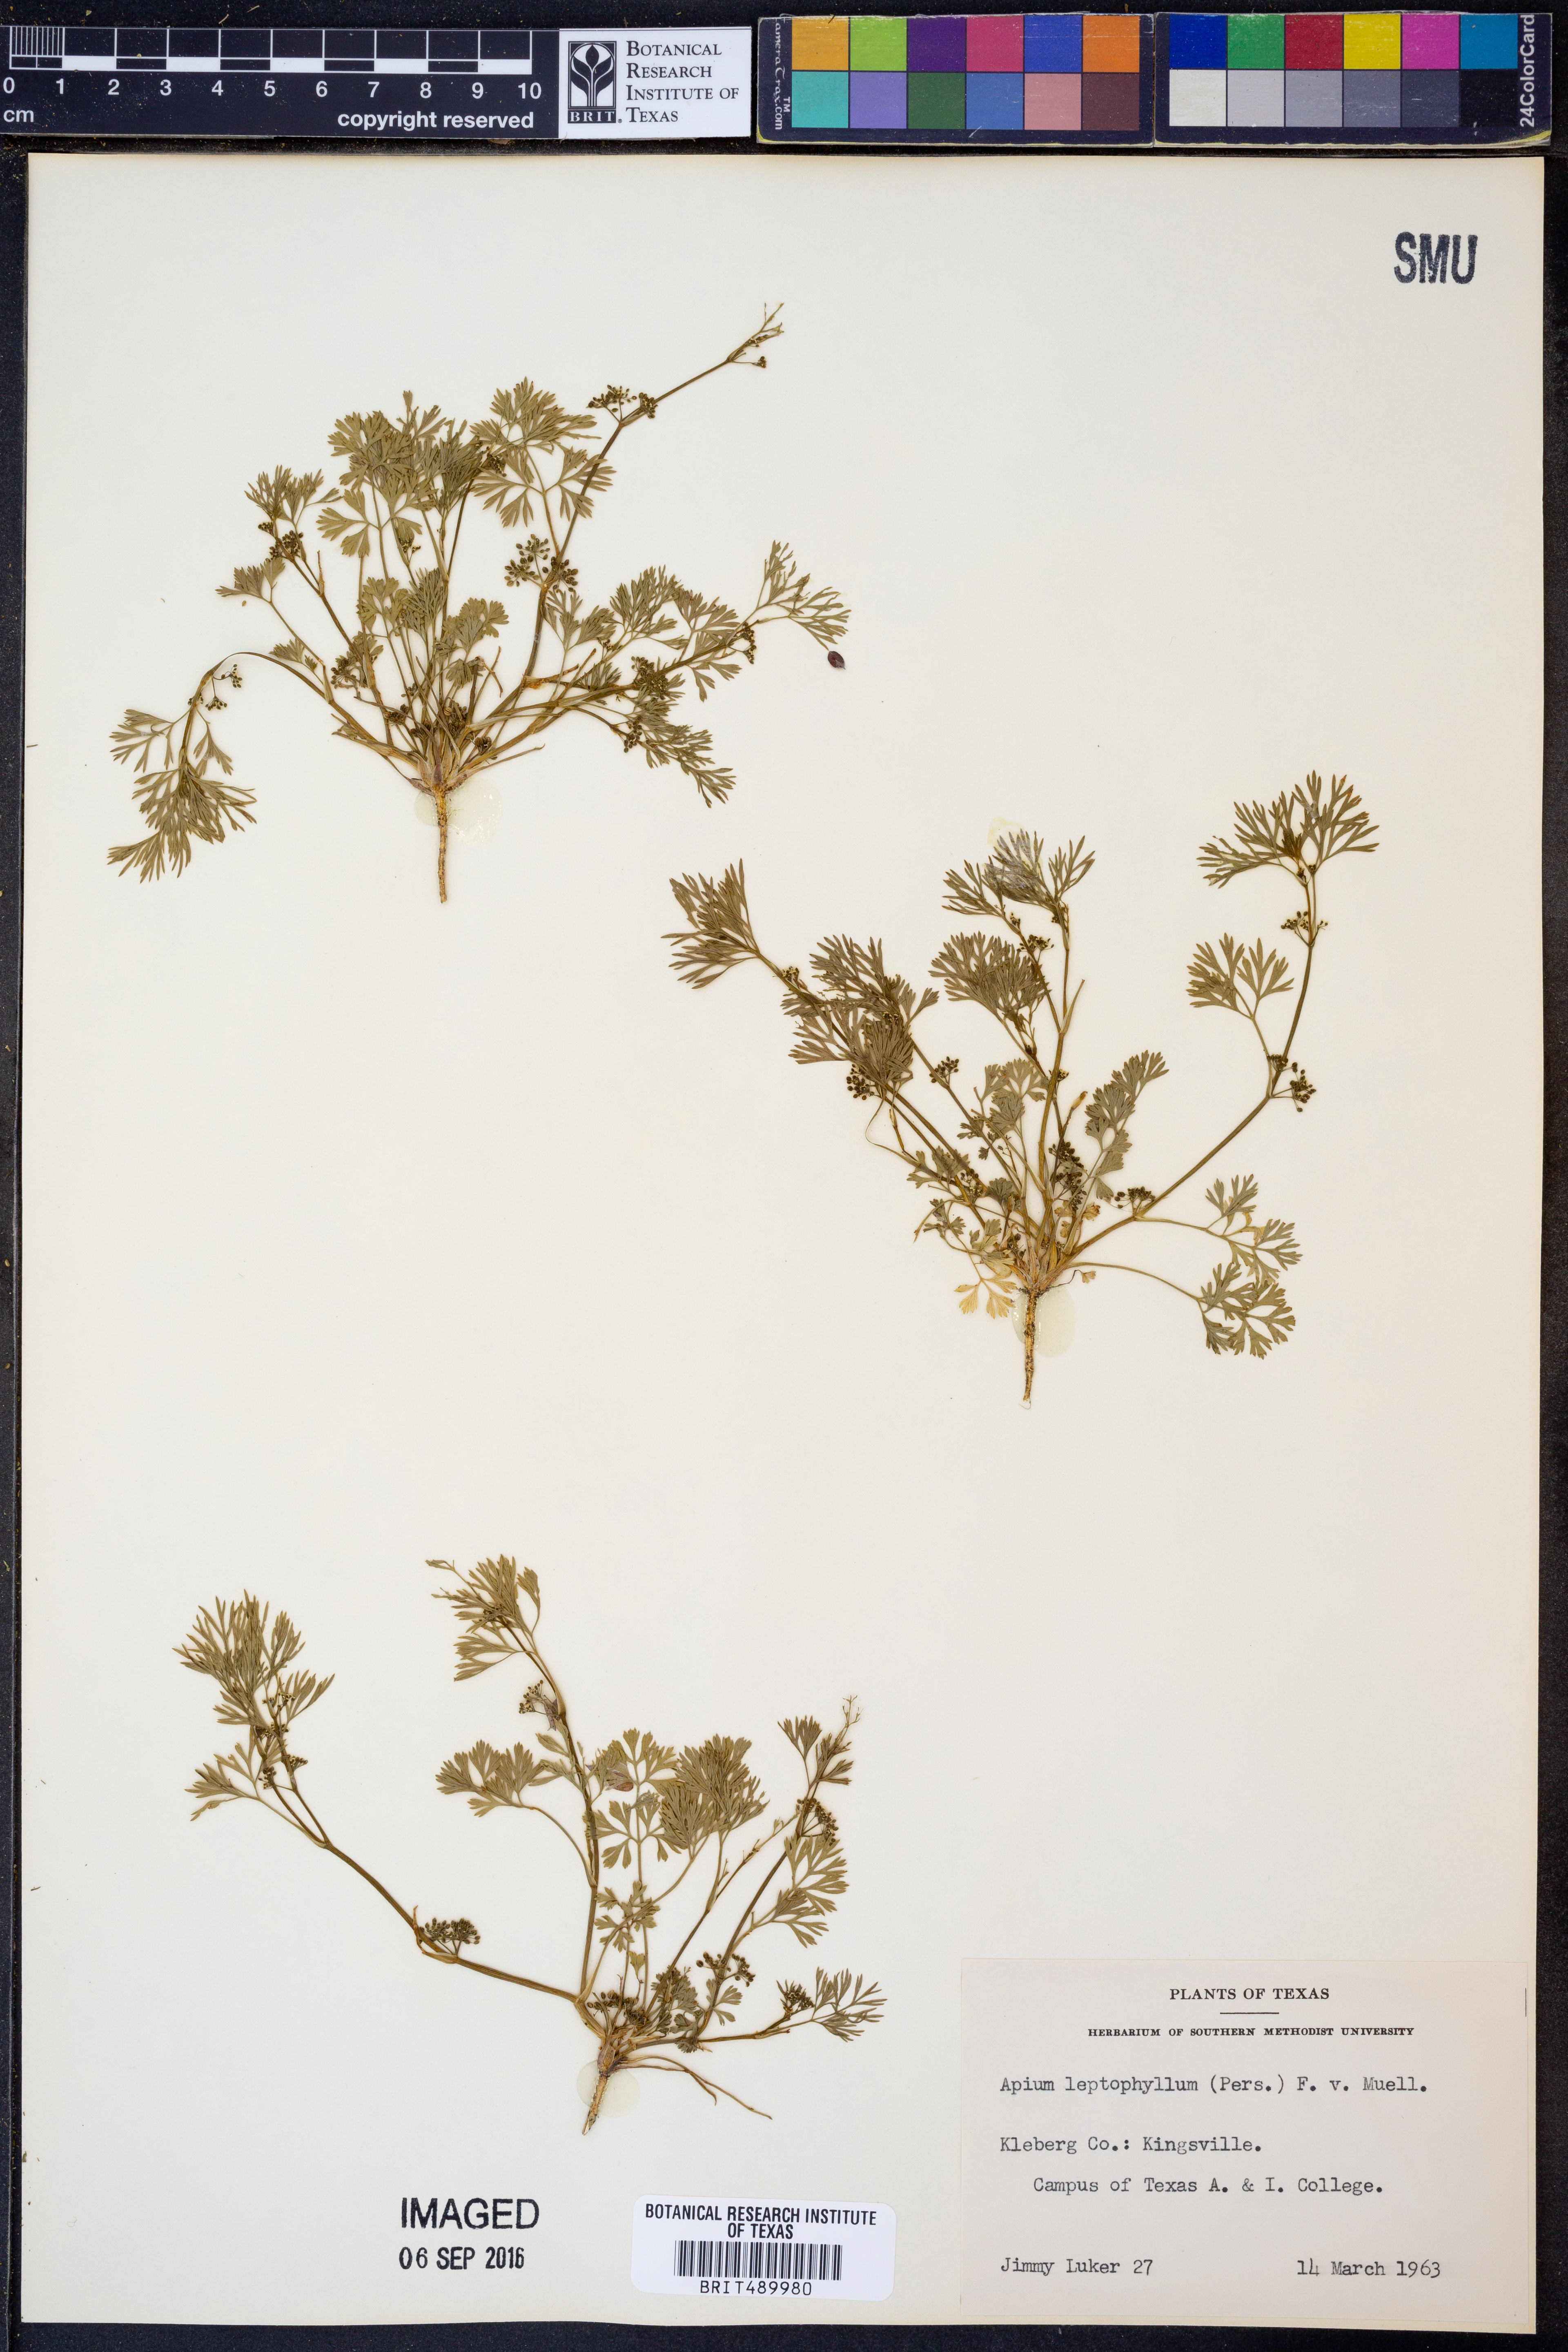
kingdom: Plantae
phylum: Tracheophyta
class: Magnoliopsida
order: Apiales
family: Apiaceae
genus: Cyclospermum
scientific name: Cyclospermum leptophyllum
